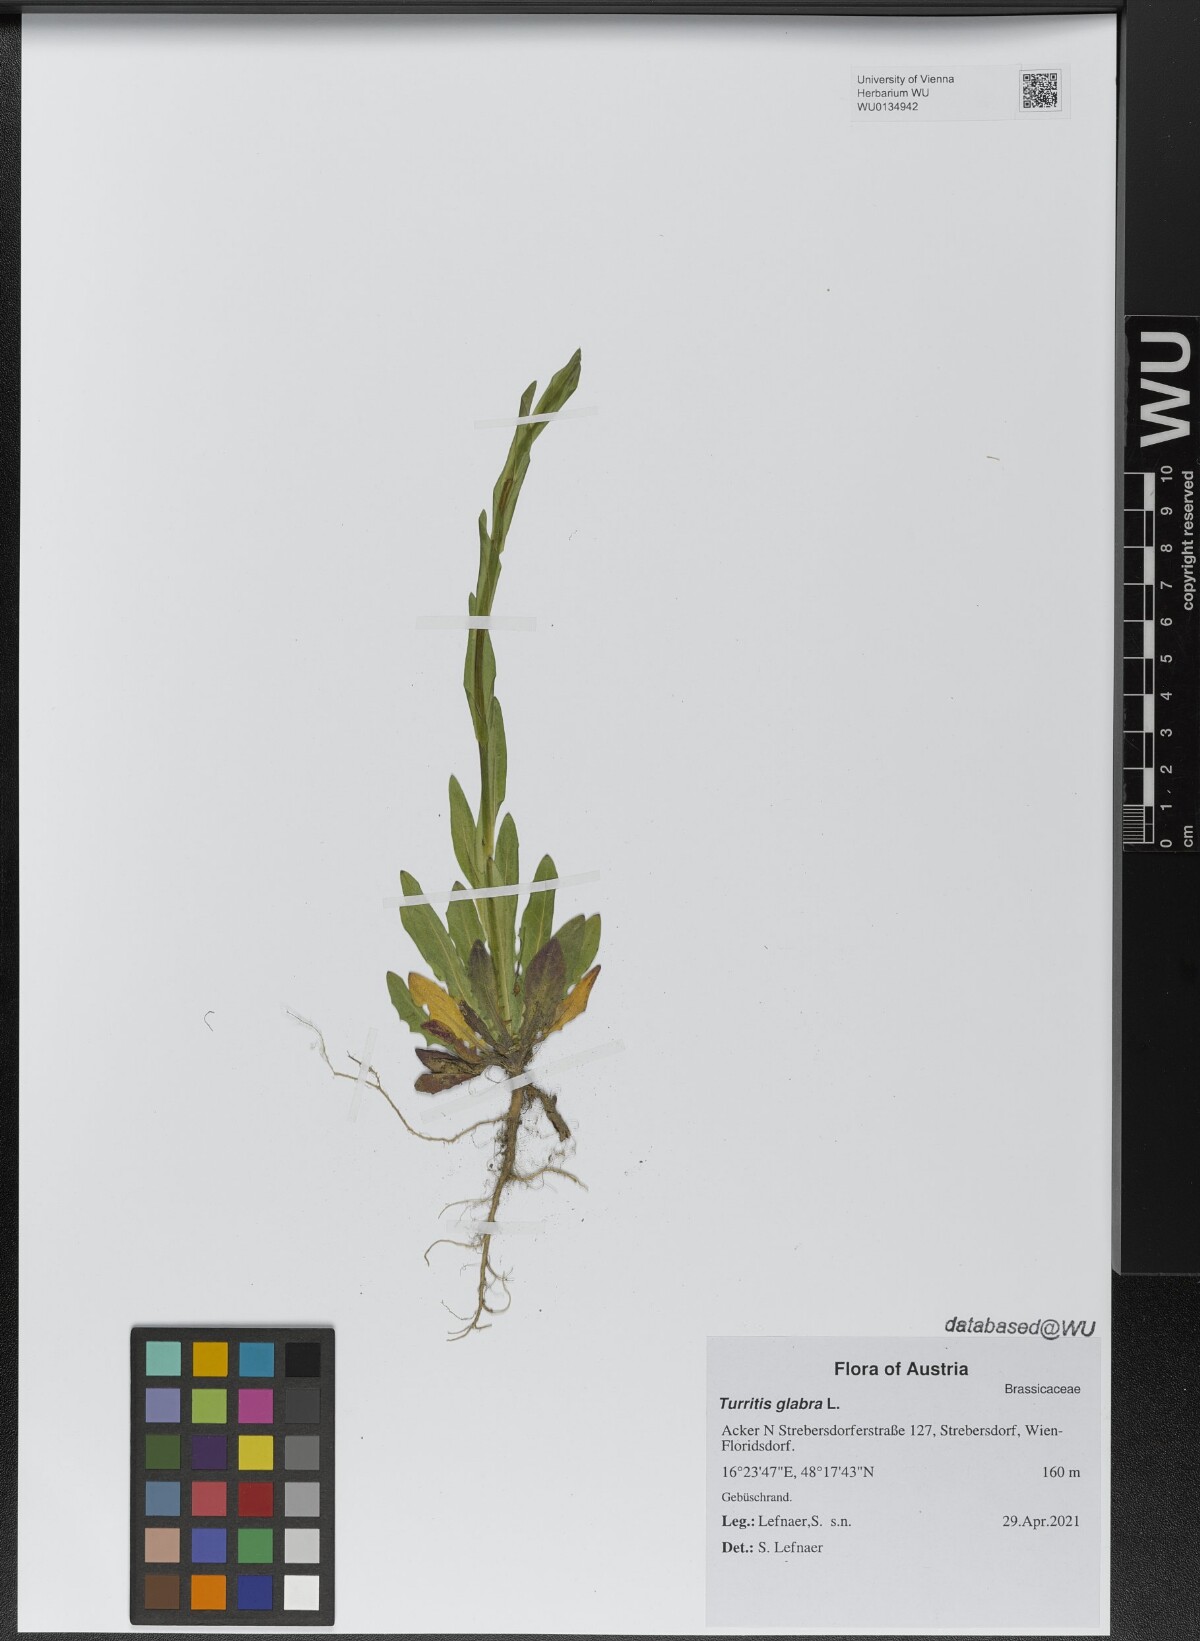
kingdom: Plantae
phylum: Tracheophyta
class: Magnoliopsida
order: Brassicales
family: Brassicaceae
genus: Turritis
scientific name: Turritis glabra
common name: Tower rockcress
